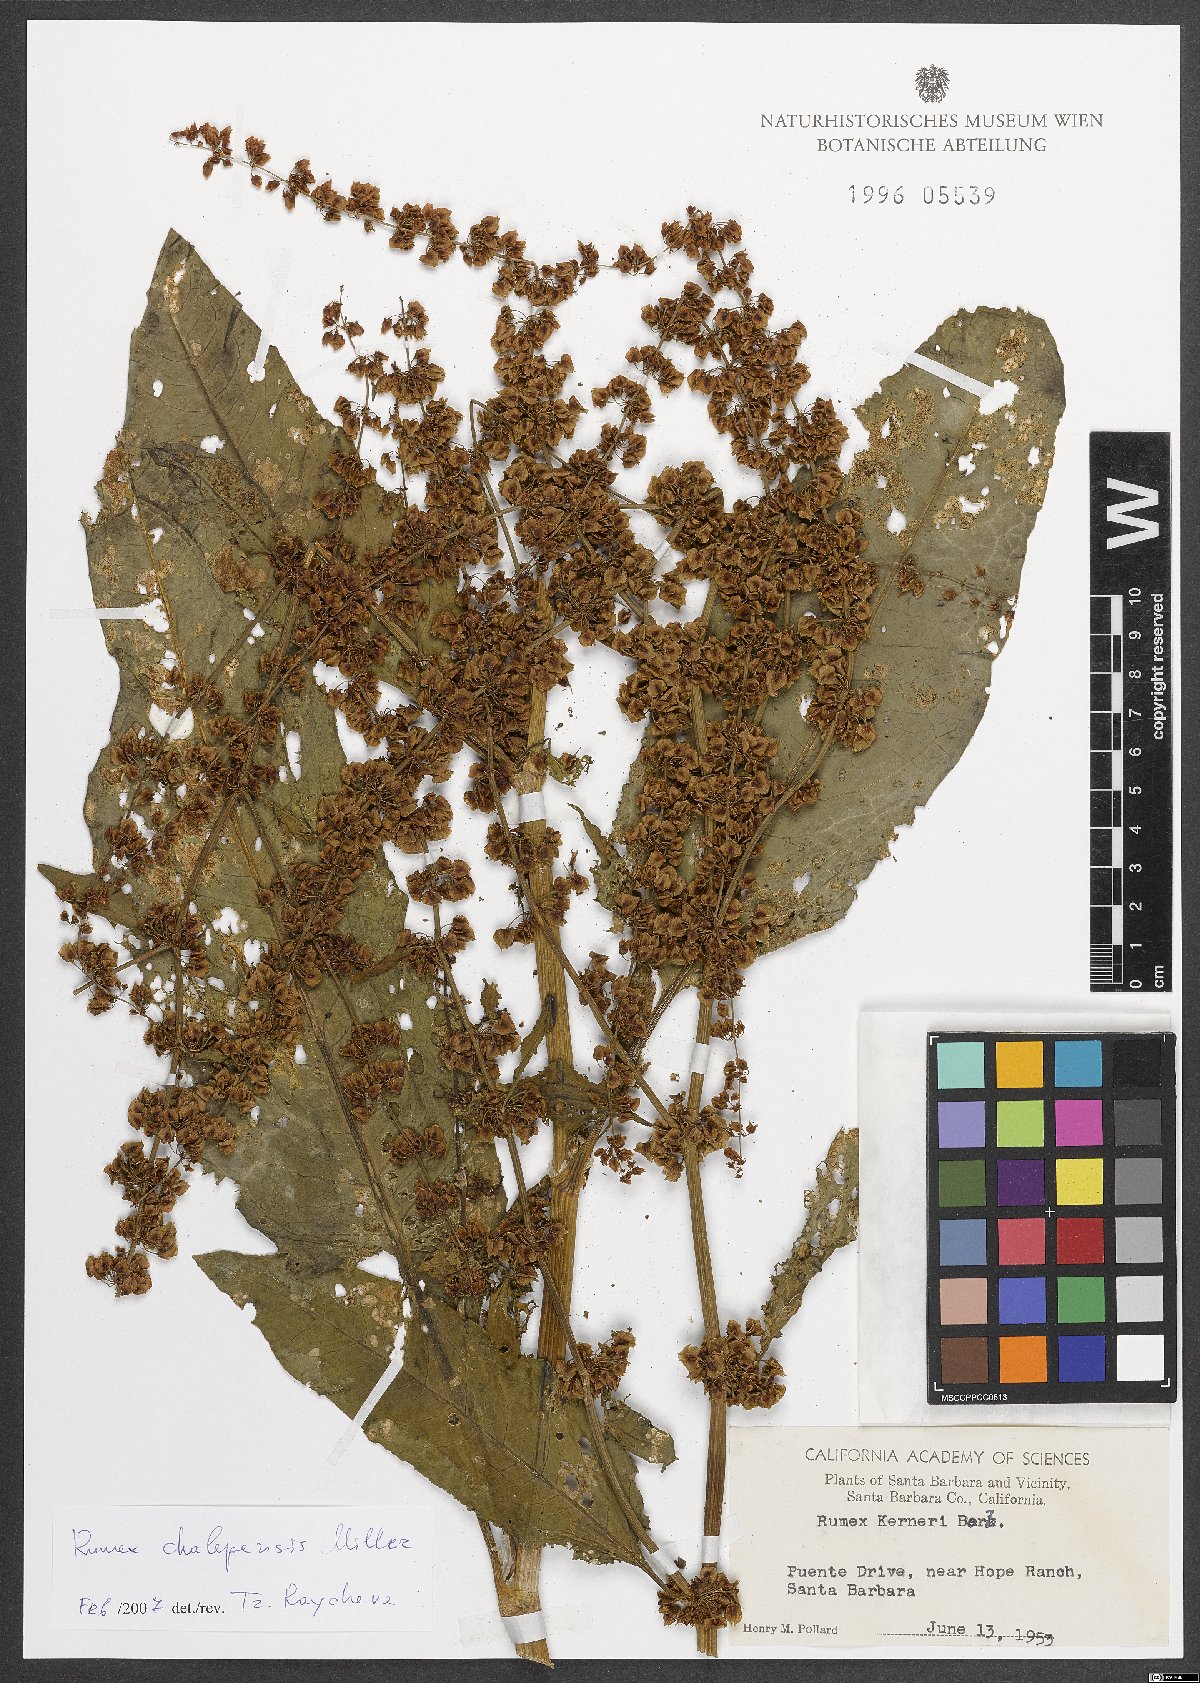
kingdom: Plantae
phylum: Tracheophyta
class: Magnoliopsida
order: Caryophyllales
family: Polygonaceae
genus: Rumex
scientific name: Rumex chalepensis
